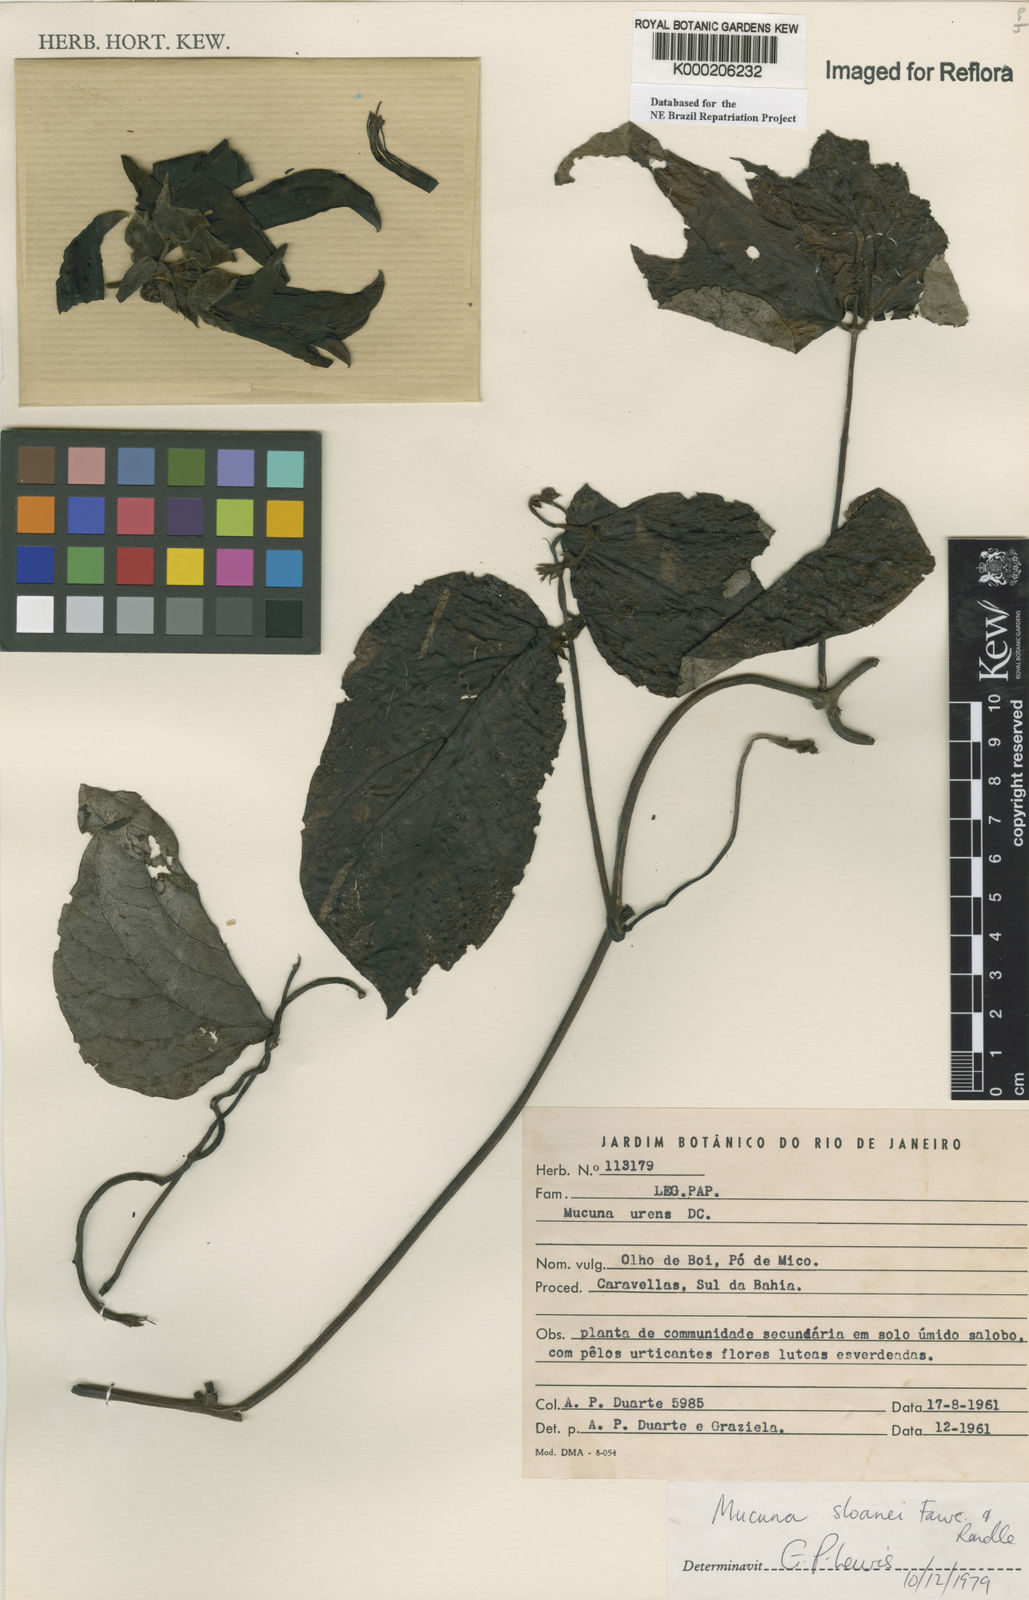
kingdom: Plantae
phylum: Tracheophyta
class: Magnoliopsida
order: Fabales
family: Fabaceae
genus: Mucuna
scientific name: Mucuna sloanei
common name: Horse-eye bean
